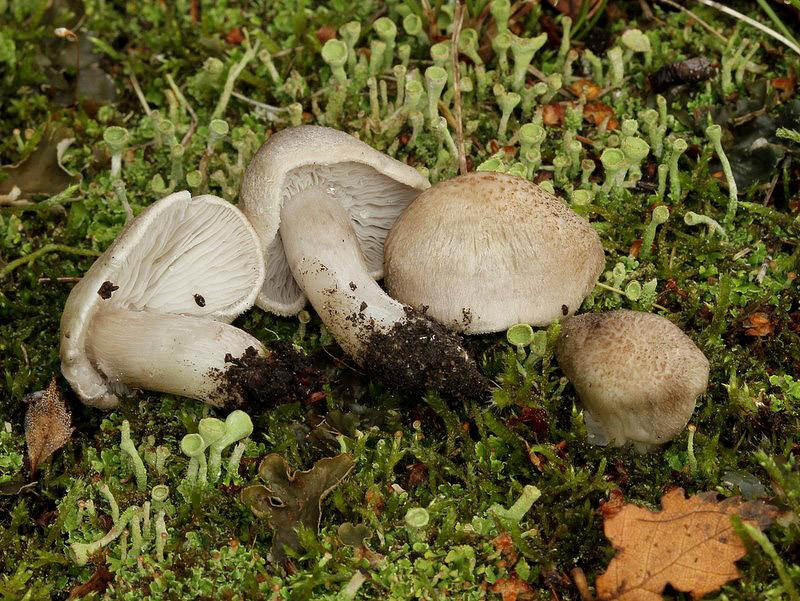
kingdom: Fungi
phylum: Basidiomycota
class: Agaricomycetes
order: Agaricales
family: Tricholomataceae
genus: Tricholoma
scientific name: Tricholoma argyraceum
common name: spids ridderhat
